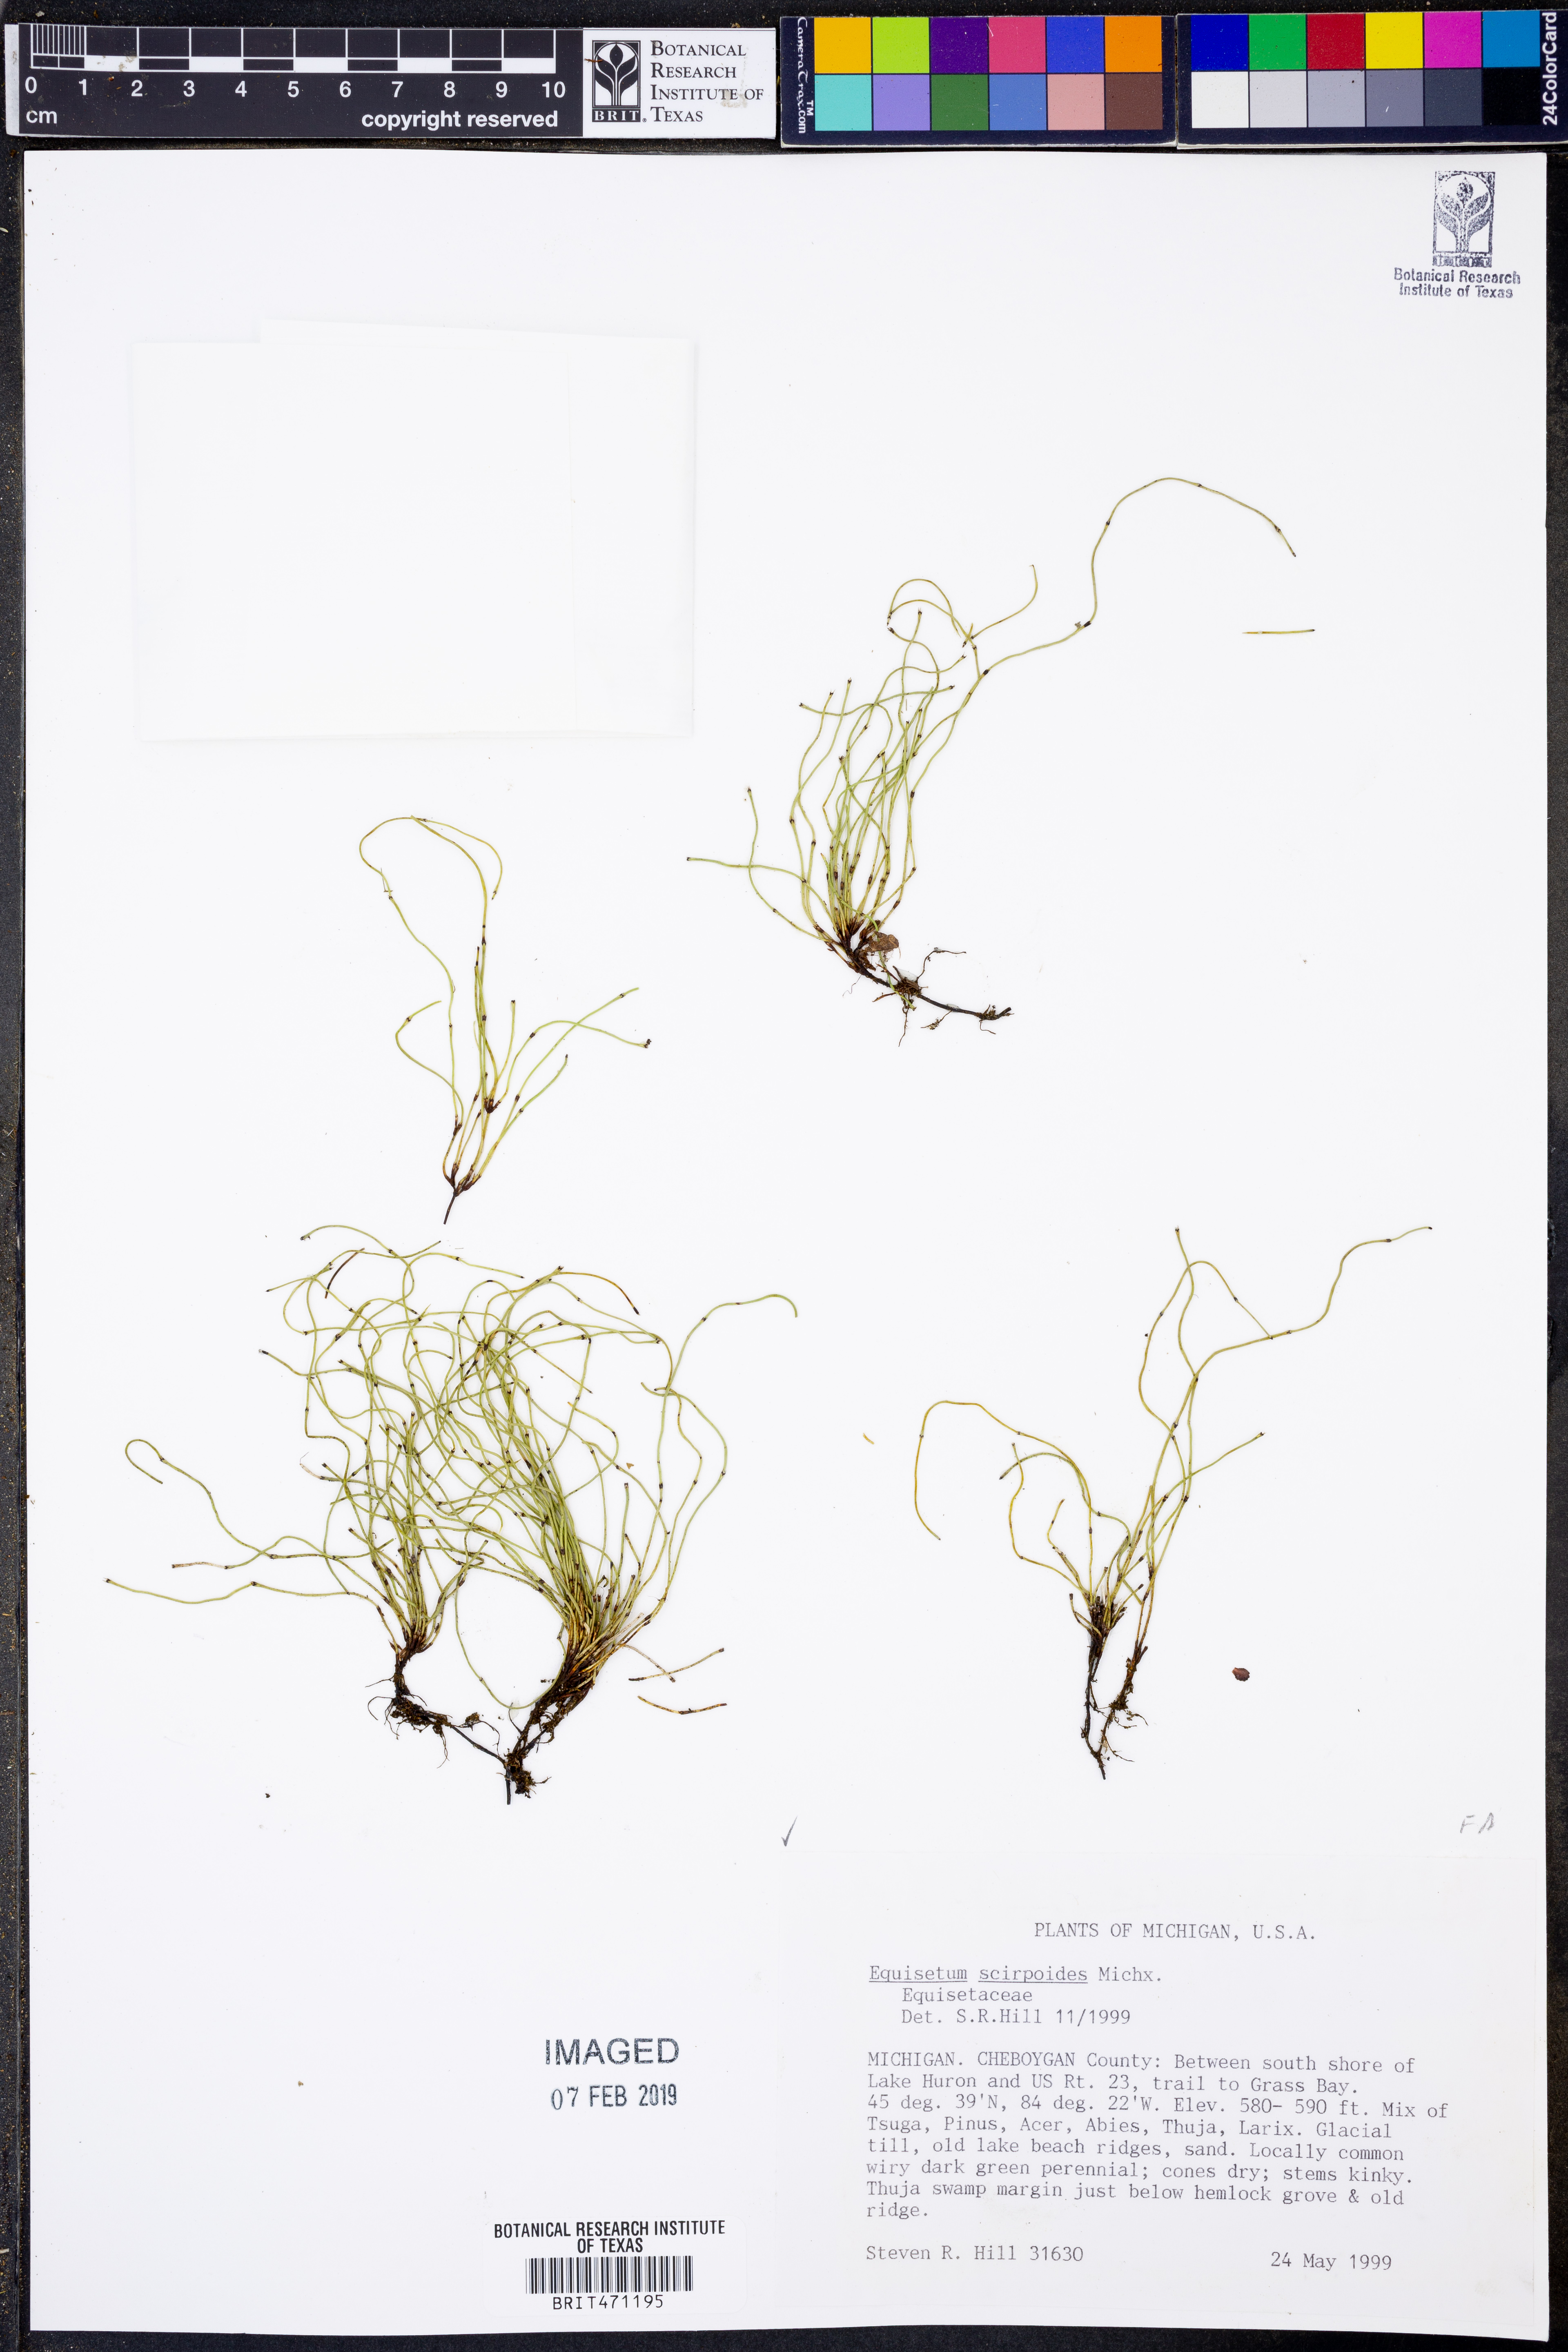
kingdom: Plantae
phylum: Tracheophyta
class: Polypodiopsida
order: Equisetales
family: Equisetaceae
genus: Equisetum
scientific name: Equisetum scirpoides
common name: Delicate horsetail
